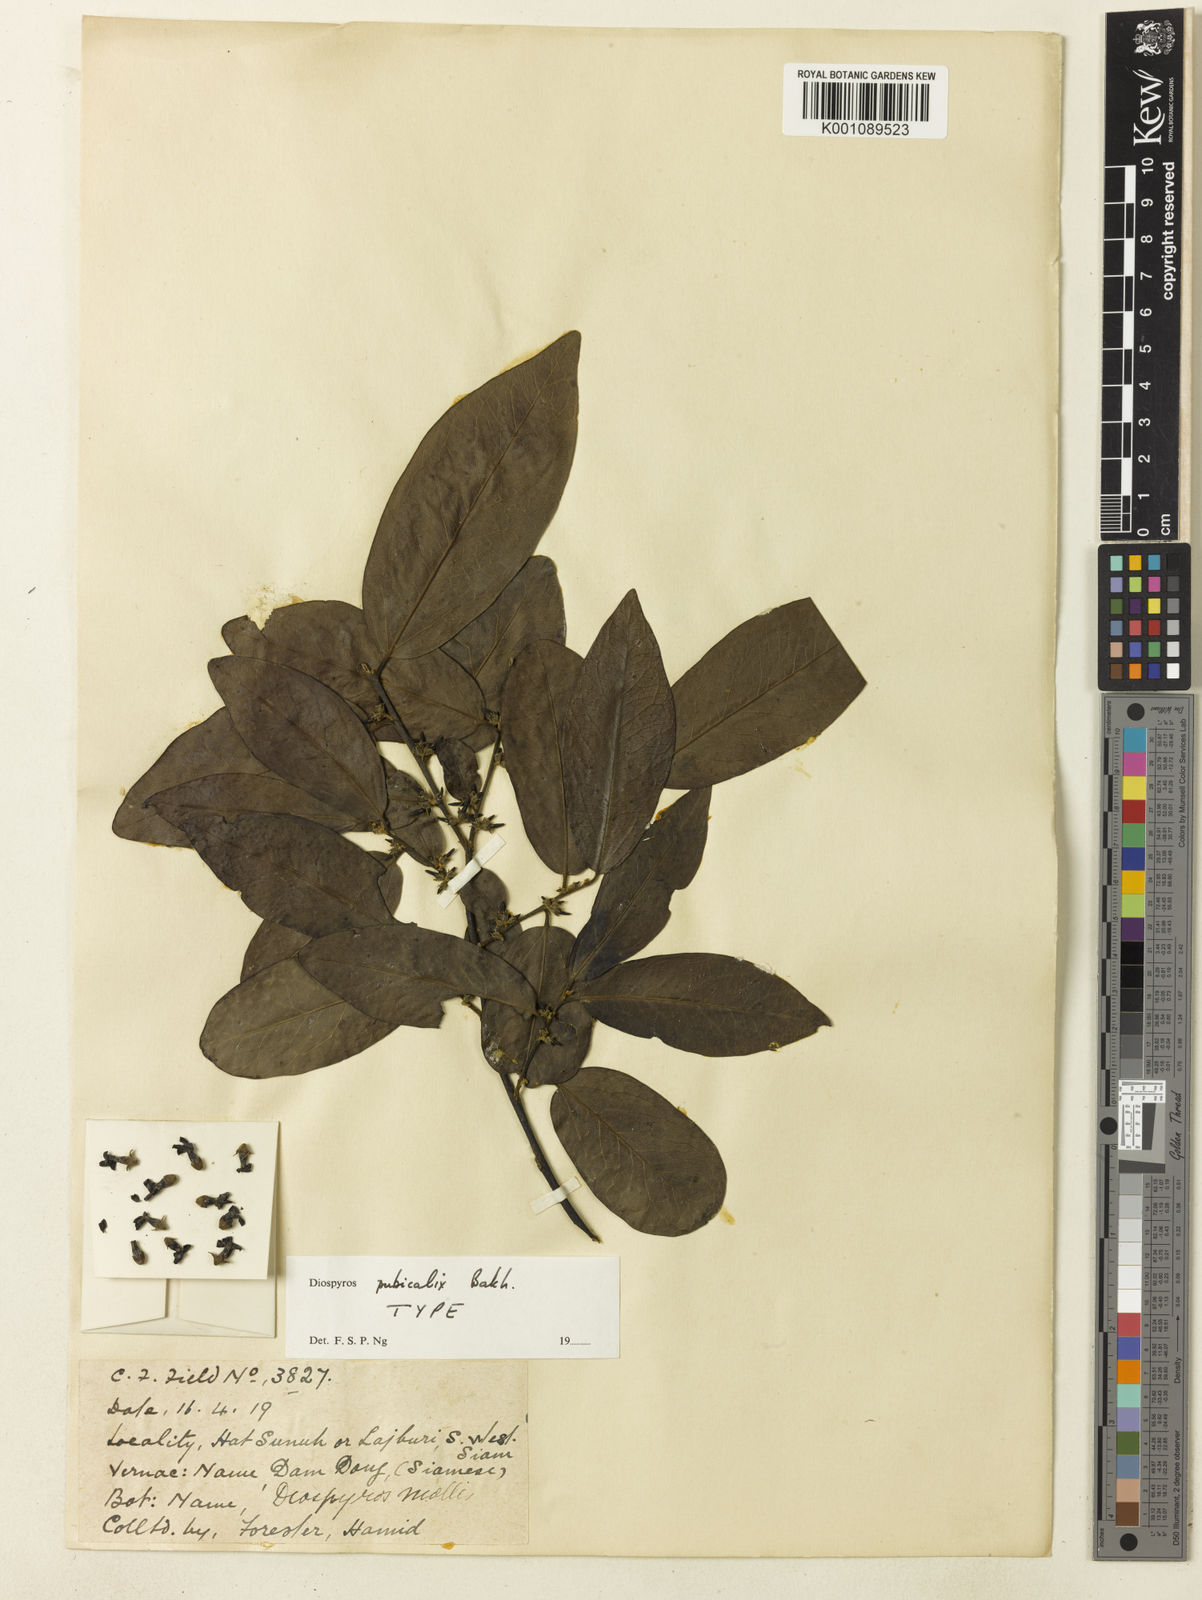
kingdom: Plantae
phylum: Tracheophyta
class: Magnoliopsida
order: Ericales
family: Ebenaceae
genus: Diospyros
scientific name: Diospyros montana
